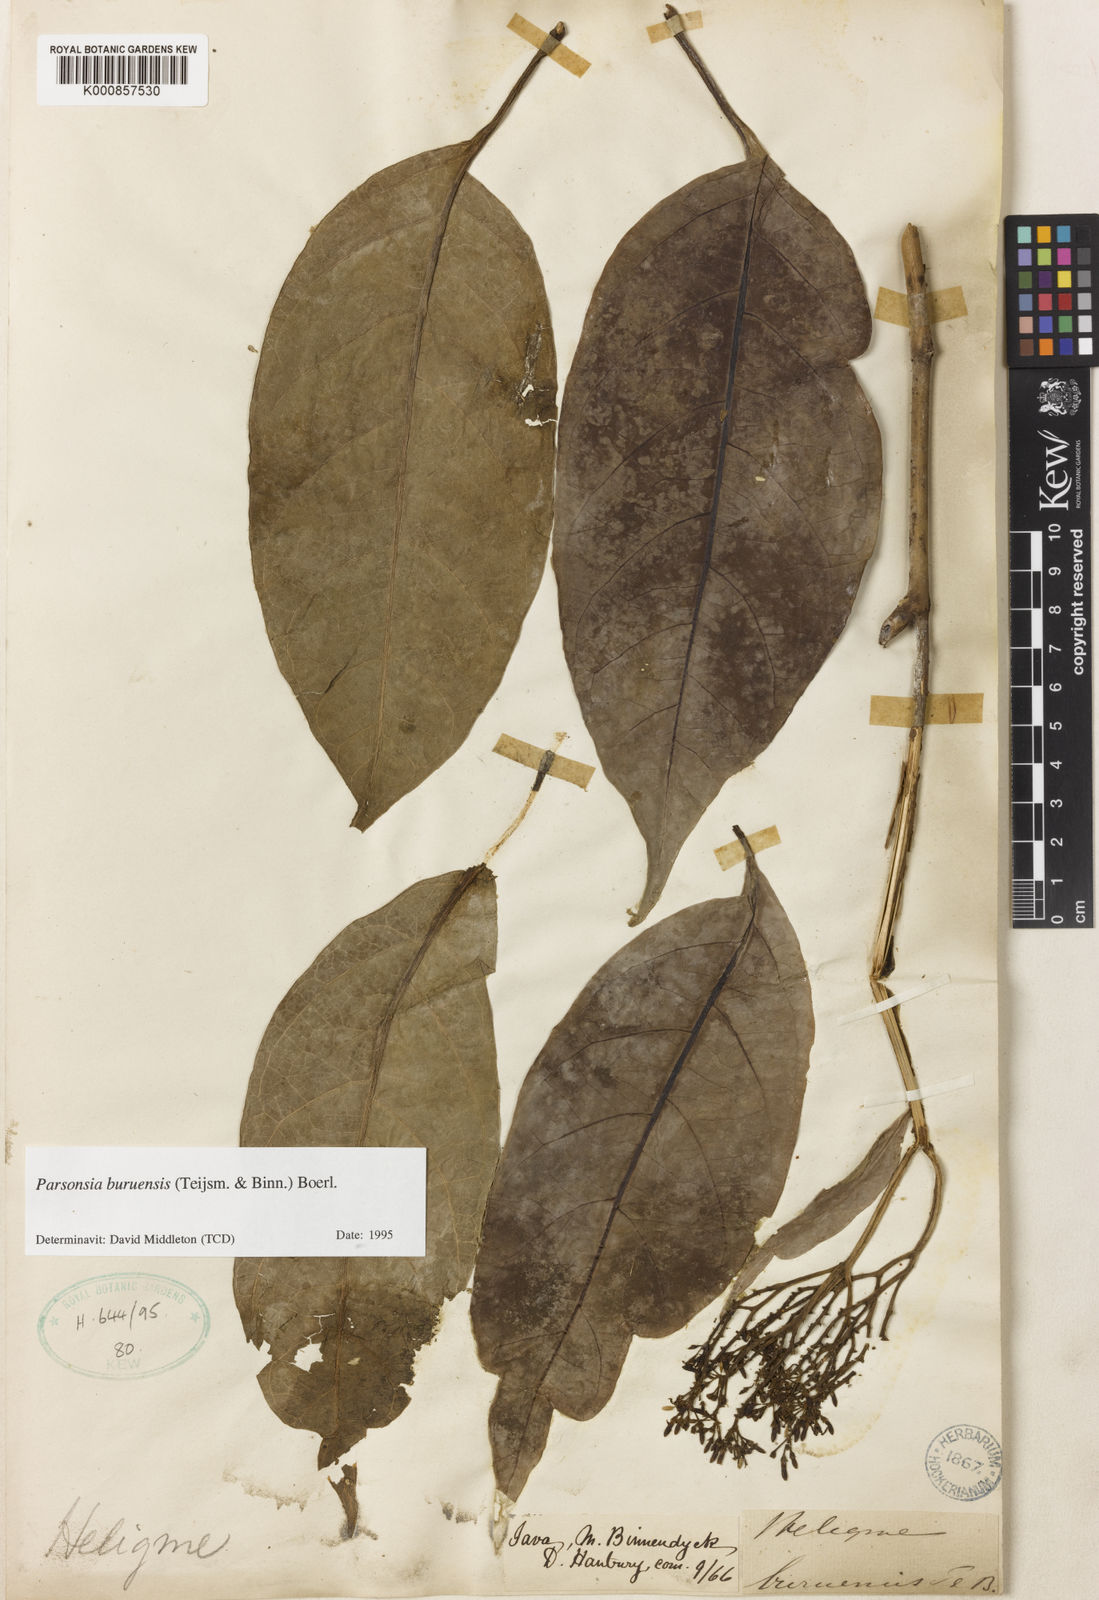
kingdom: Plantae
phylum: Tracheophyta
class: Magnoliopsida
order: Gentianales
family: Apocynaceae
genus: Parsonsia
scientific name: Parsonsia buruensis
